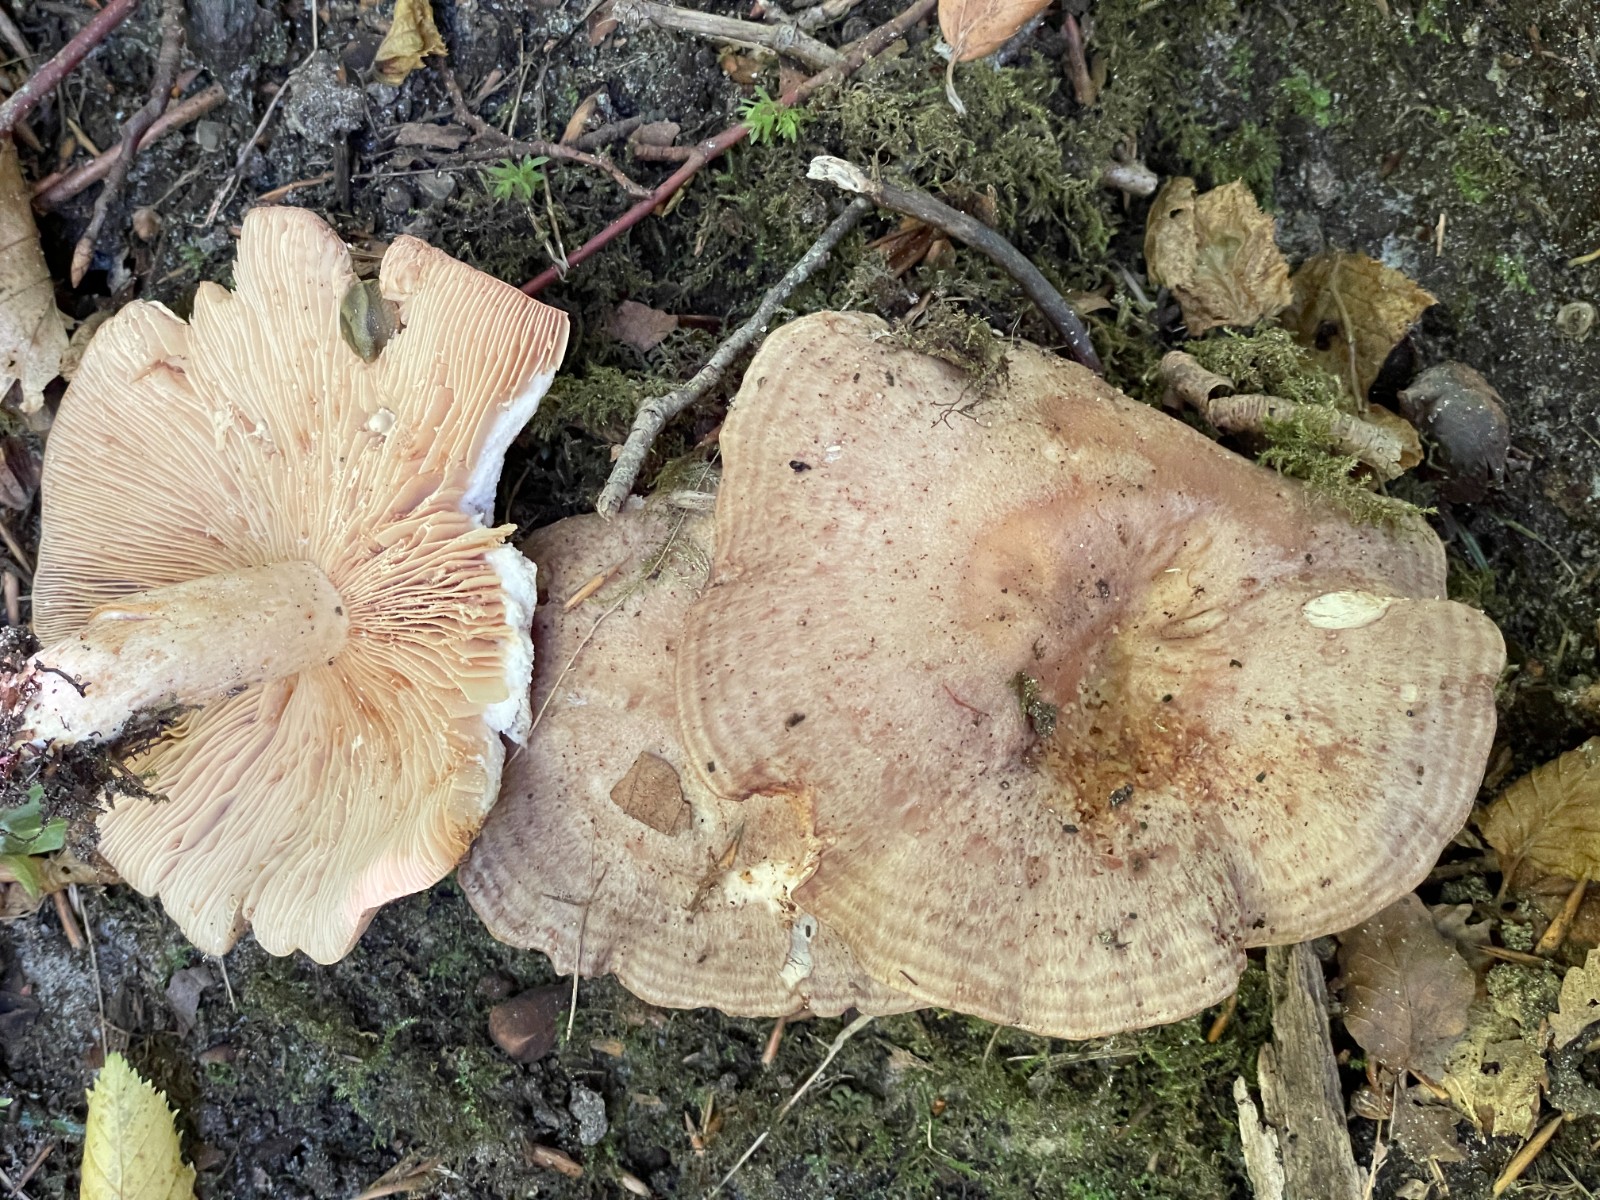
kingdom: Fungi
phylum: Basidiomycota
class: Agaricomycetes
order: Russulales
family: Russulaceae
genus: Lactarius
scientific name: Lactarius circellatus
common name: avnbøg-mælkehat
